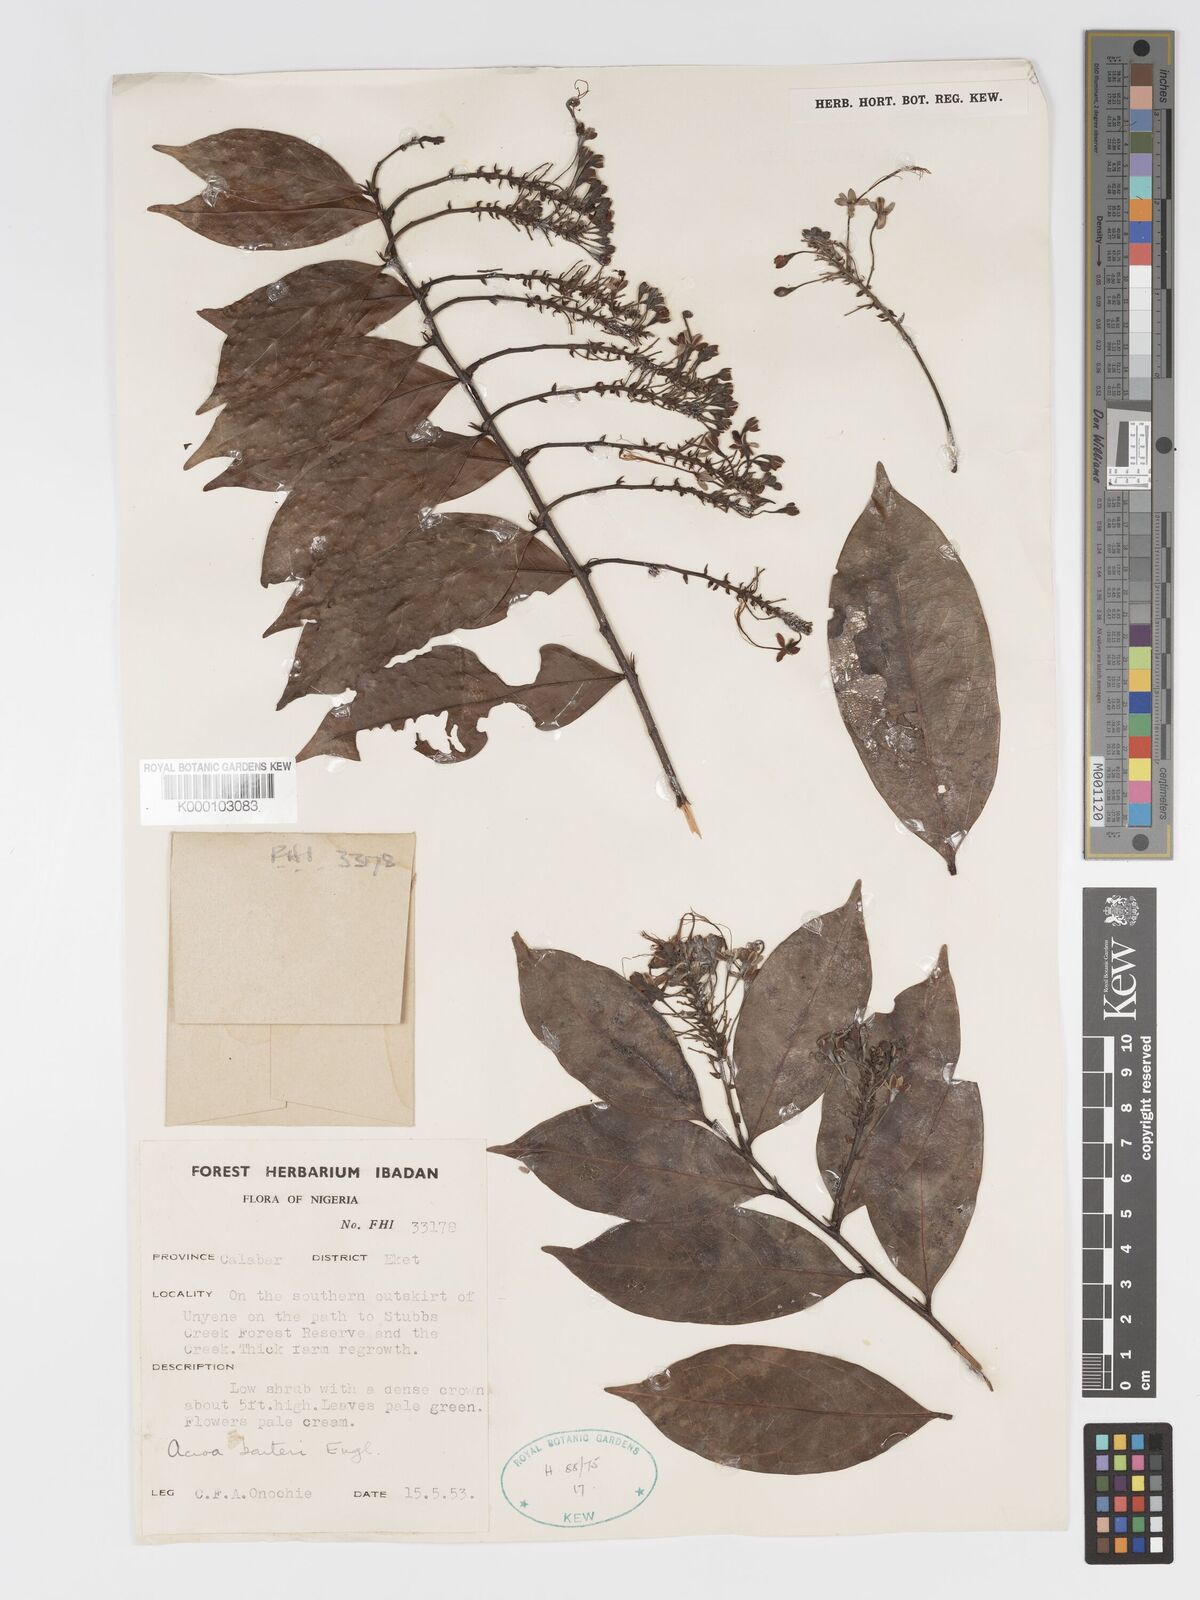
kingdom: Plantae
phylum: Tracheophyta
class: Magnoliopsida
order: Malpighiales
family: Chrysobalanaceae
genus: Dactyladenia
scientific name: Dactyladenia barteri
